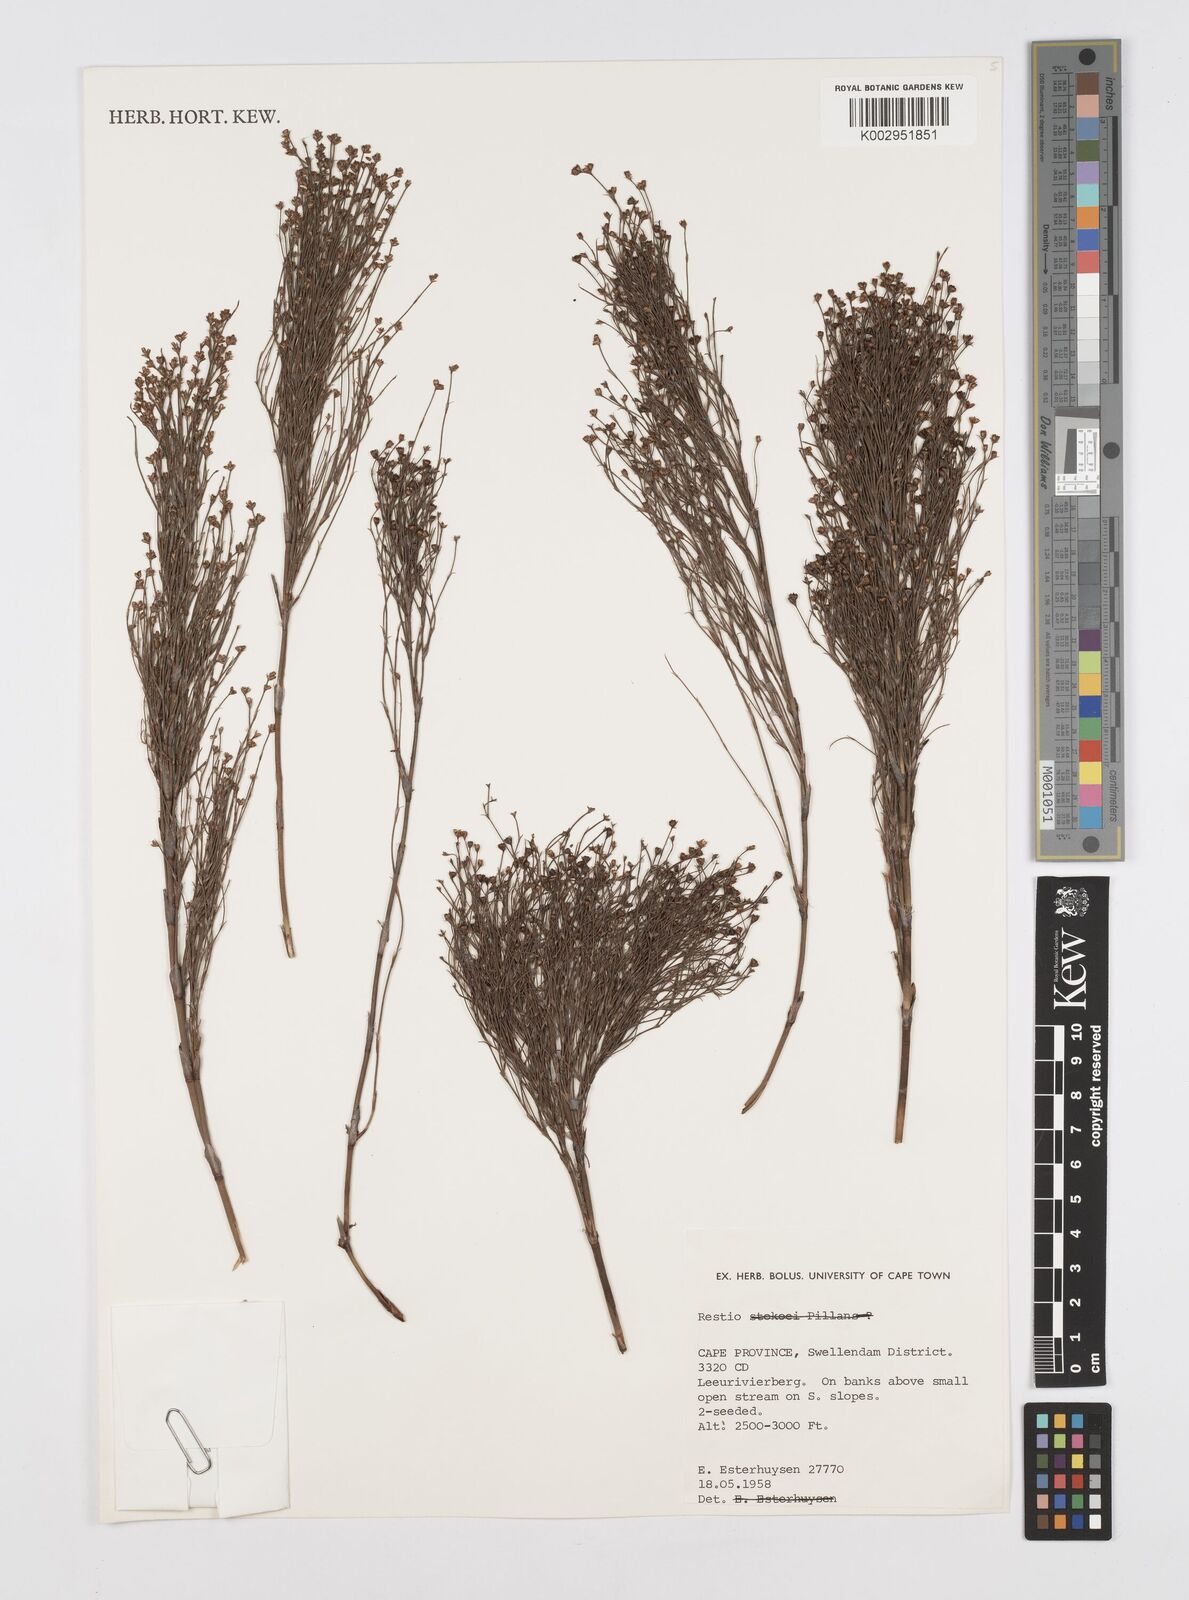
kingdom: Plantae
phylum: Tracheophyta
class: Liliopsida
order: Poales
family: Restionaceae
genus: Restio
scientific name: Restio
